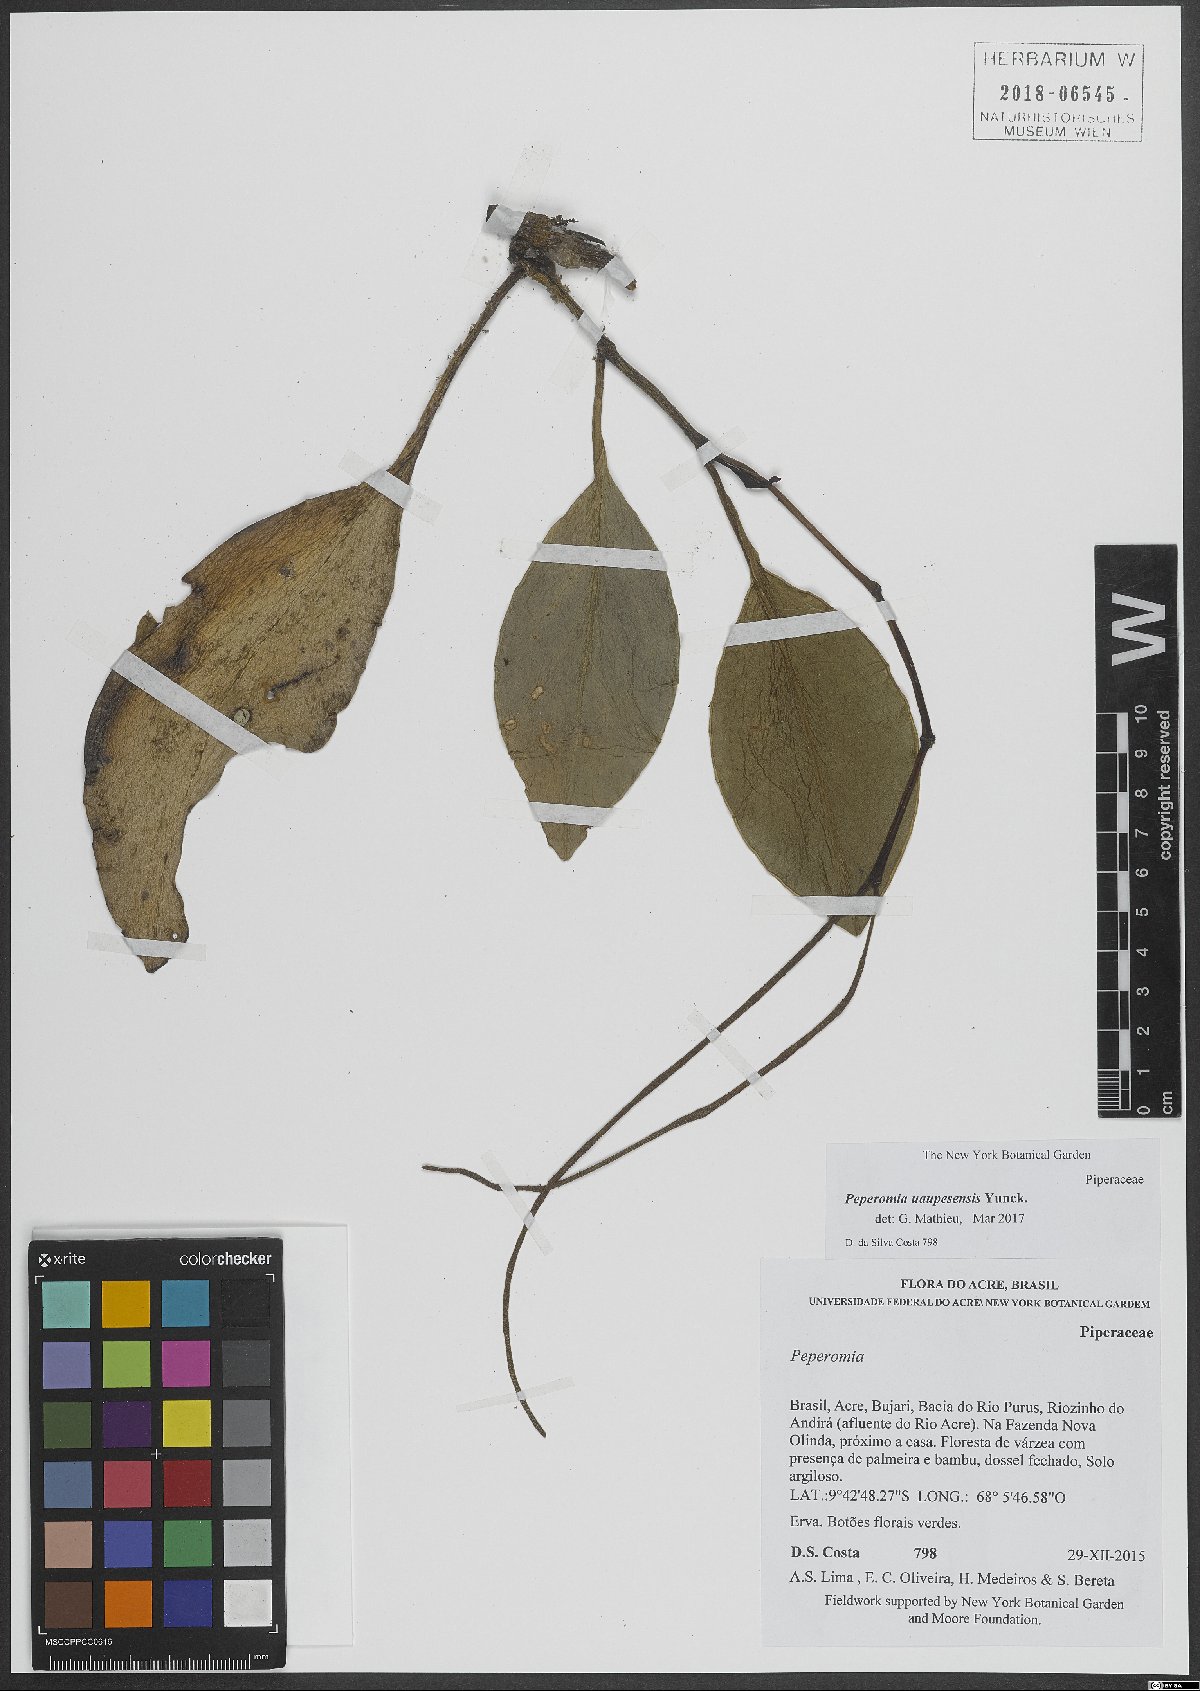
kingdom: Plantae
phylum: Tracheophyta
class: Magnoliopsida
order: Piperales
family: Piperaceae
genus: Peperomia
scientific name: Peperomia
